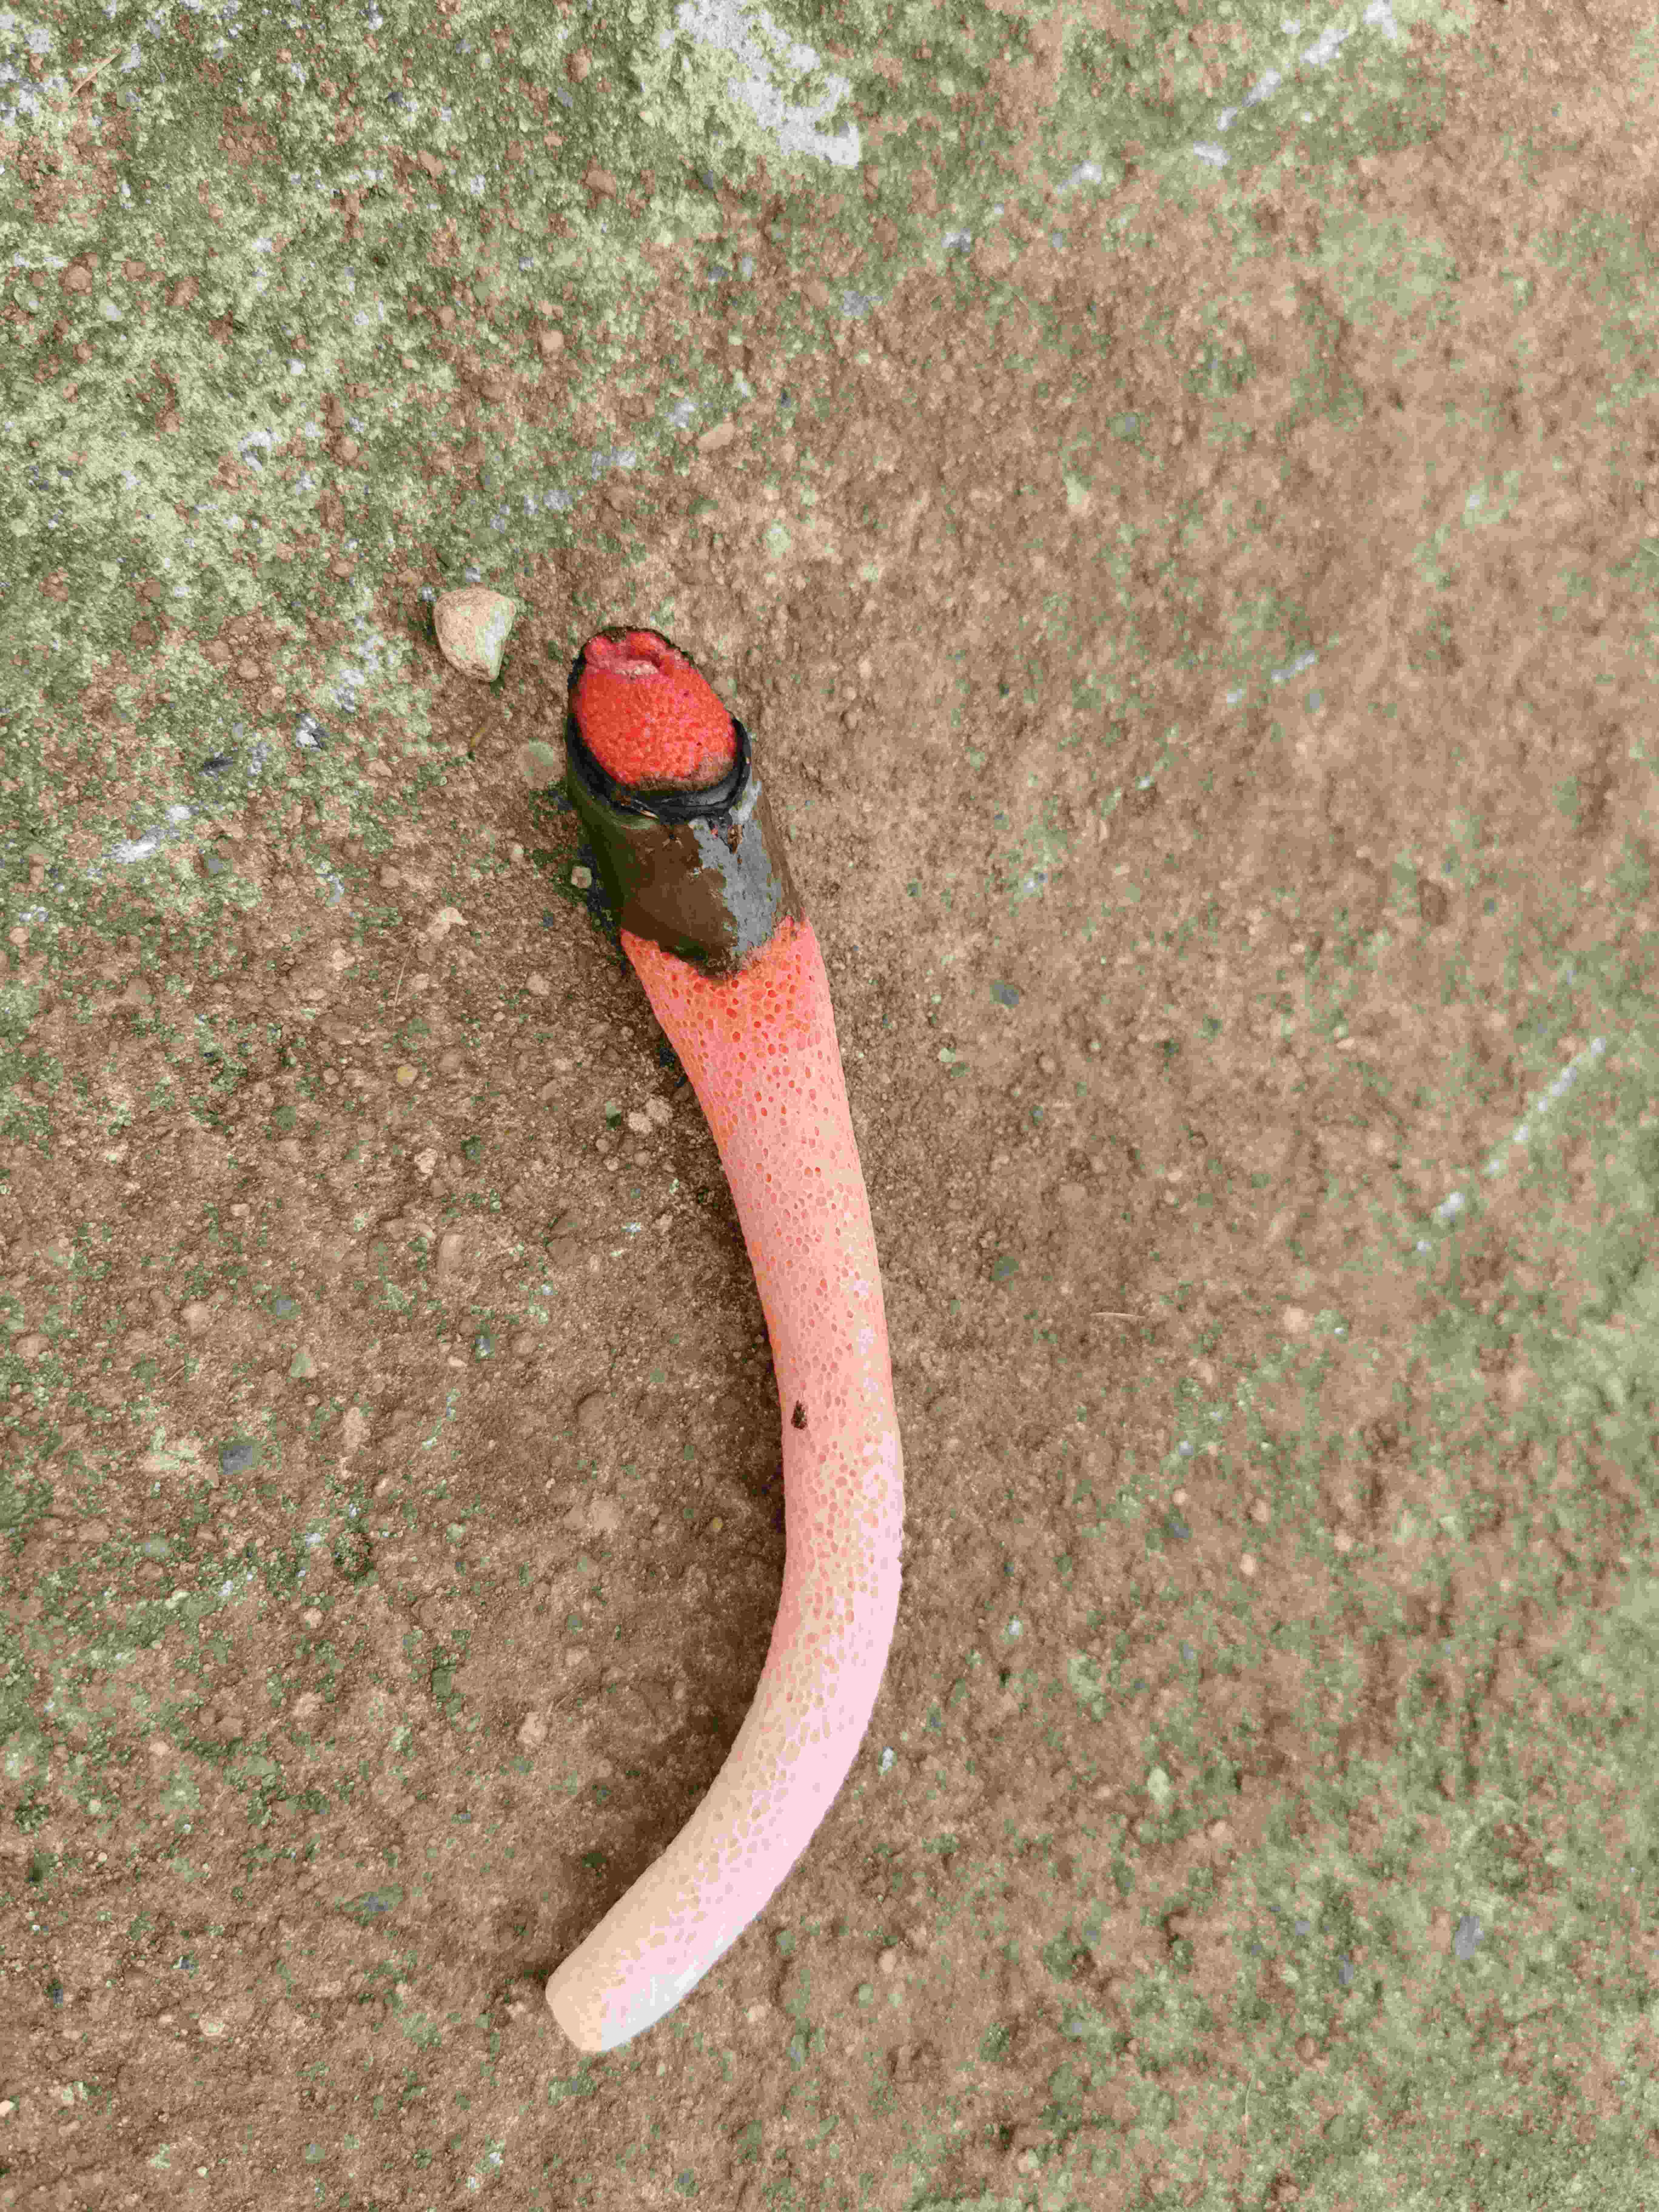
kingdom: Fungi
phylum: Basidiomycota
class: Agaricomycetes
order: Phallales
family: Phallaceae
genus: Mutinus
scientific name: Mutinus ravenelii
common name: rød stinksvamp
